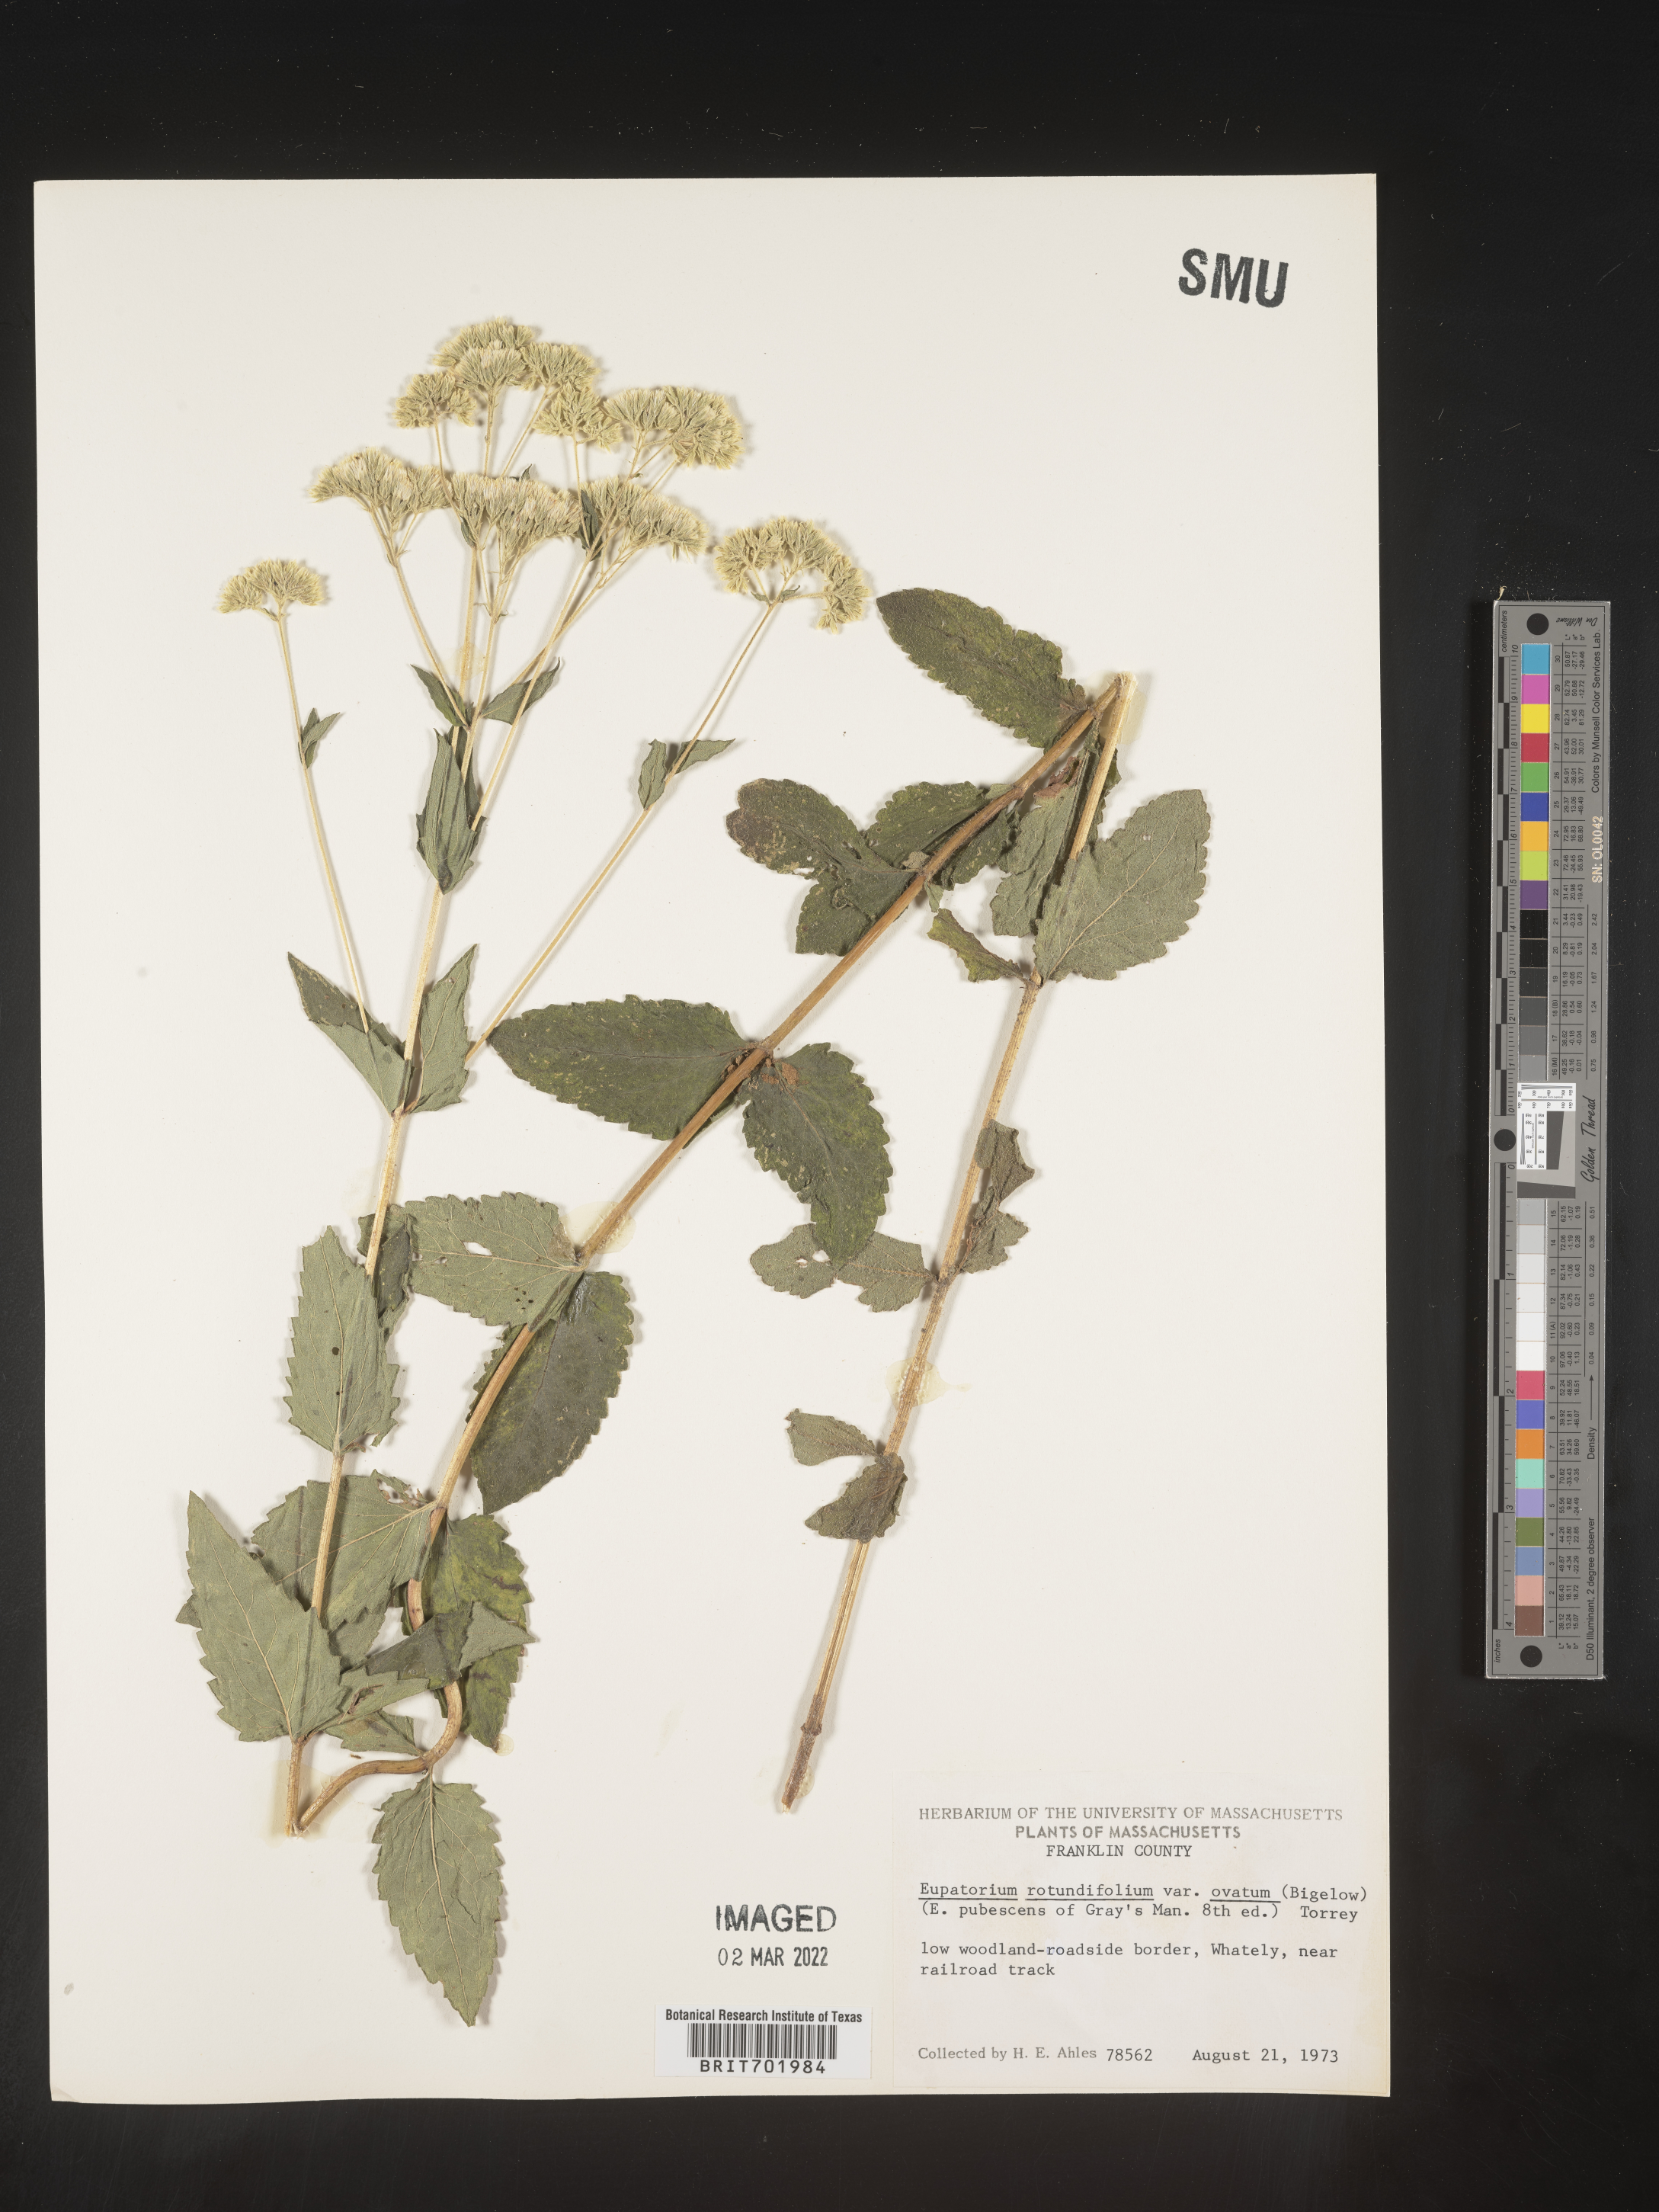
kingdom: Plantae
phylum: Tracheophyta
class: Magnoliopsida
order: Asterales
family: Asteraceae
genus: Eupatorium
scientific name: Eupatorium rotundifolium
